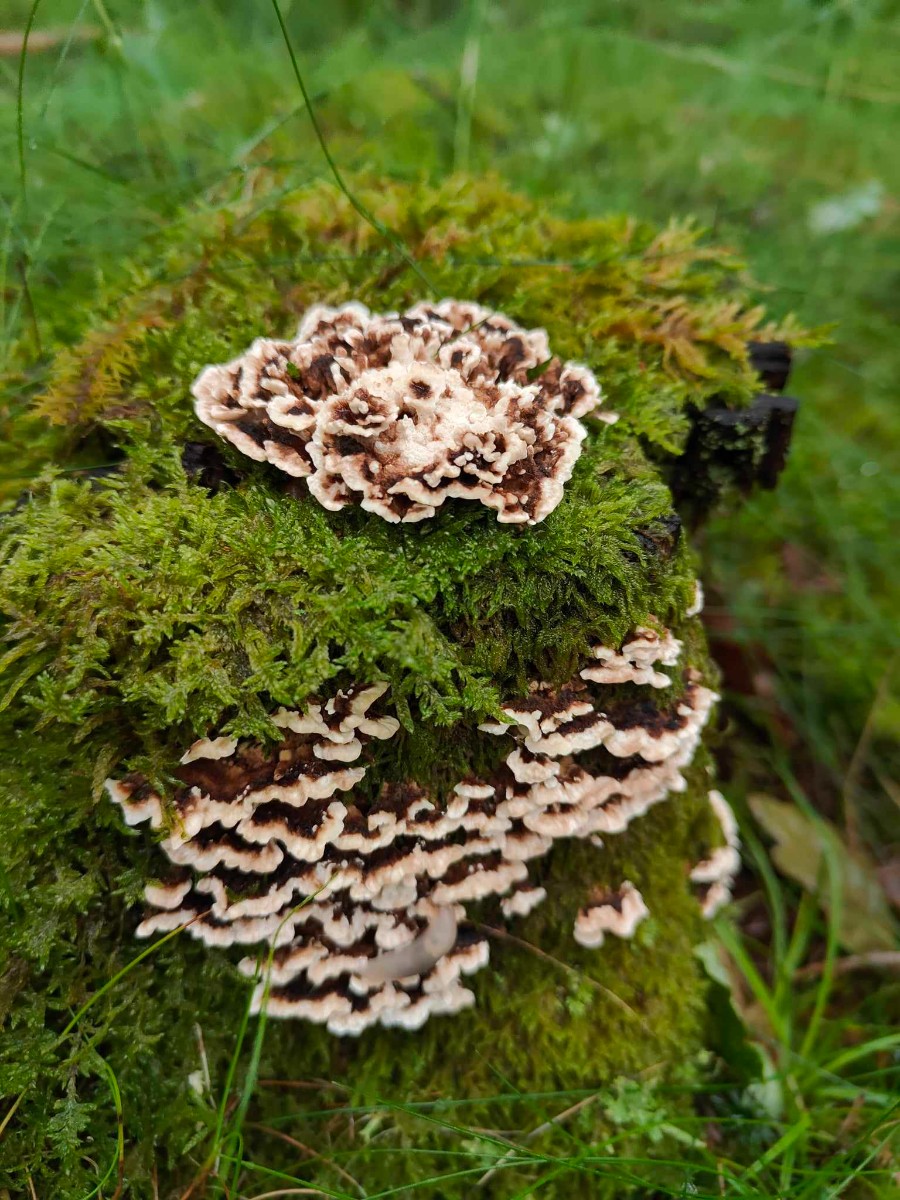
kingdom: Fungi
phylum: Basidiomycota
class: Agaricomycetes
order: Polyporales
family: Polyporaceae
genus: Trametes
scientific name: Trametes versicolor
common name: broget læderporesvamp
